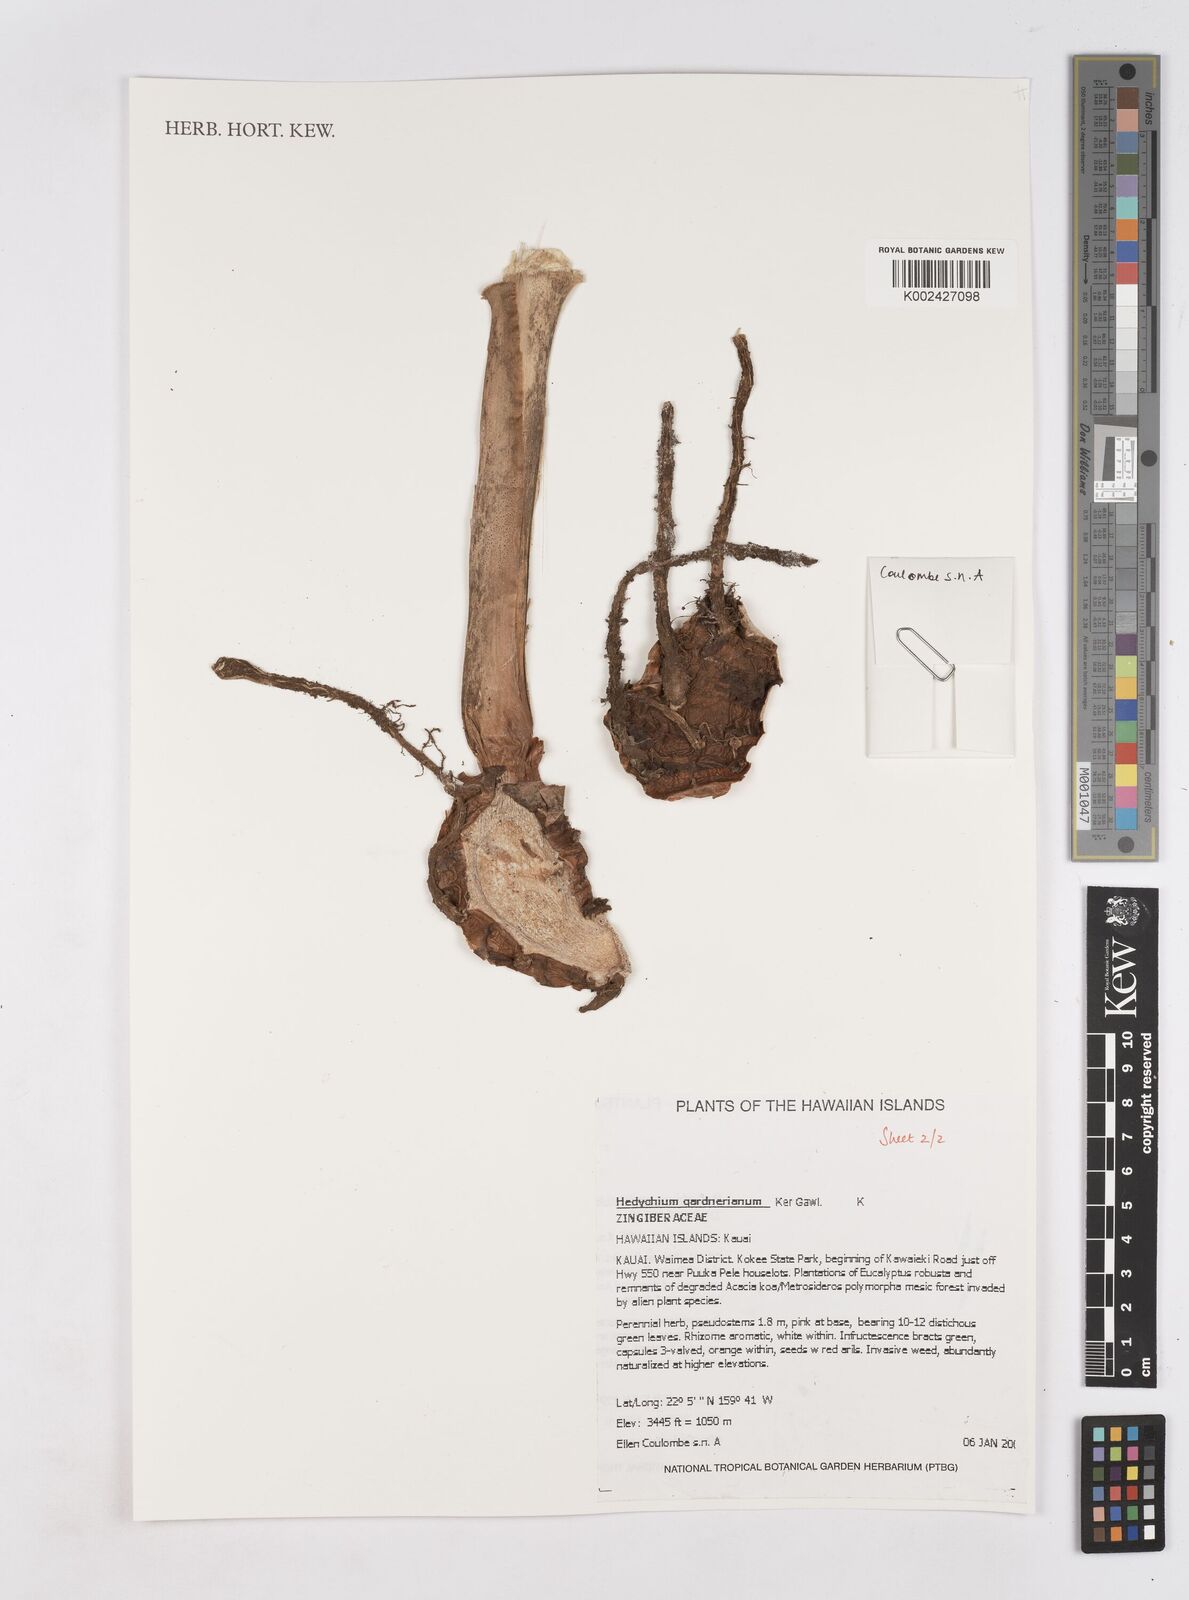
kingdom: Plantae
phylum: Tracheophyta
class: Liliopsida
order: Zingiberales
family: Zingiberaceae
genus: Hedychium
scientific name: Hedychium gardnerianum
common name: Himalayan ginger
